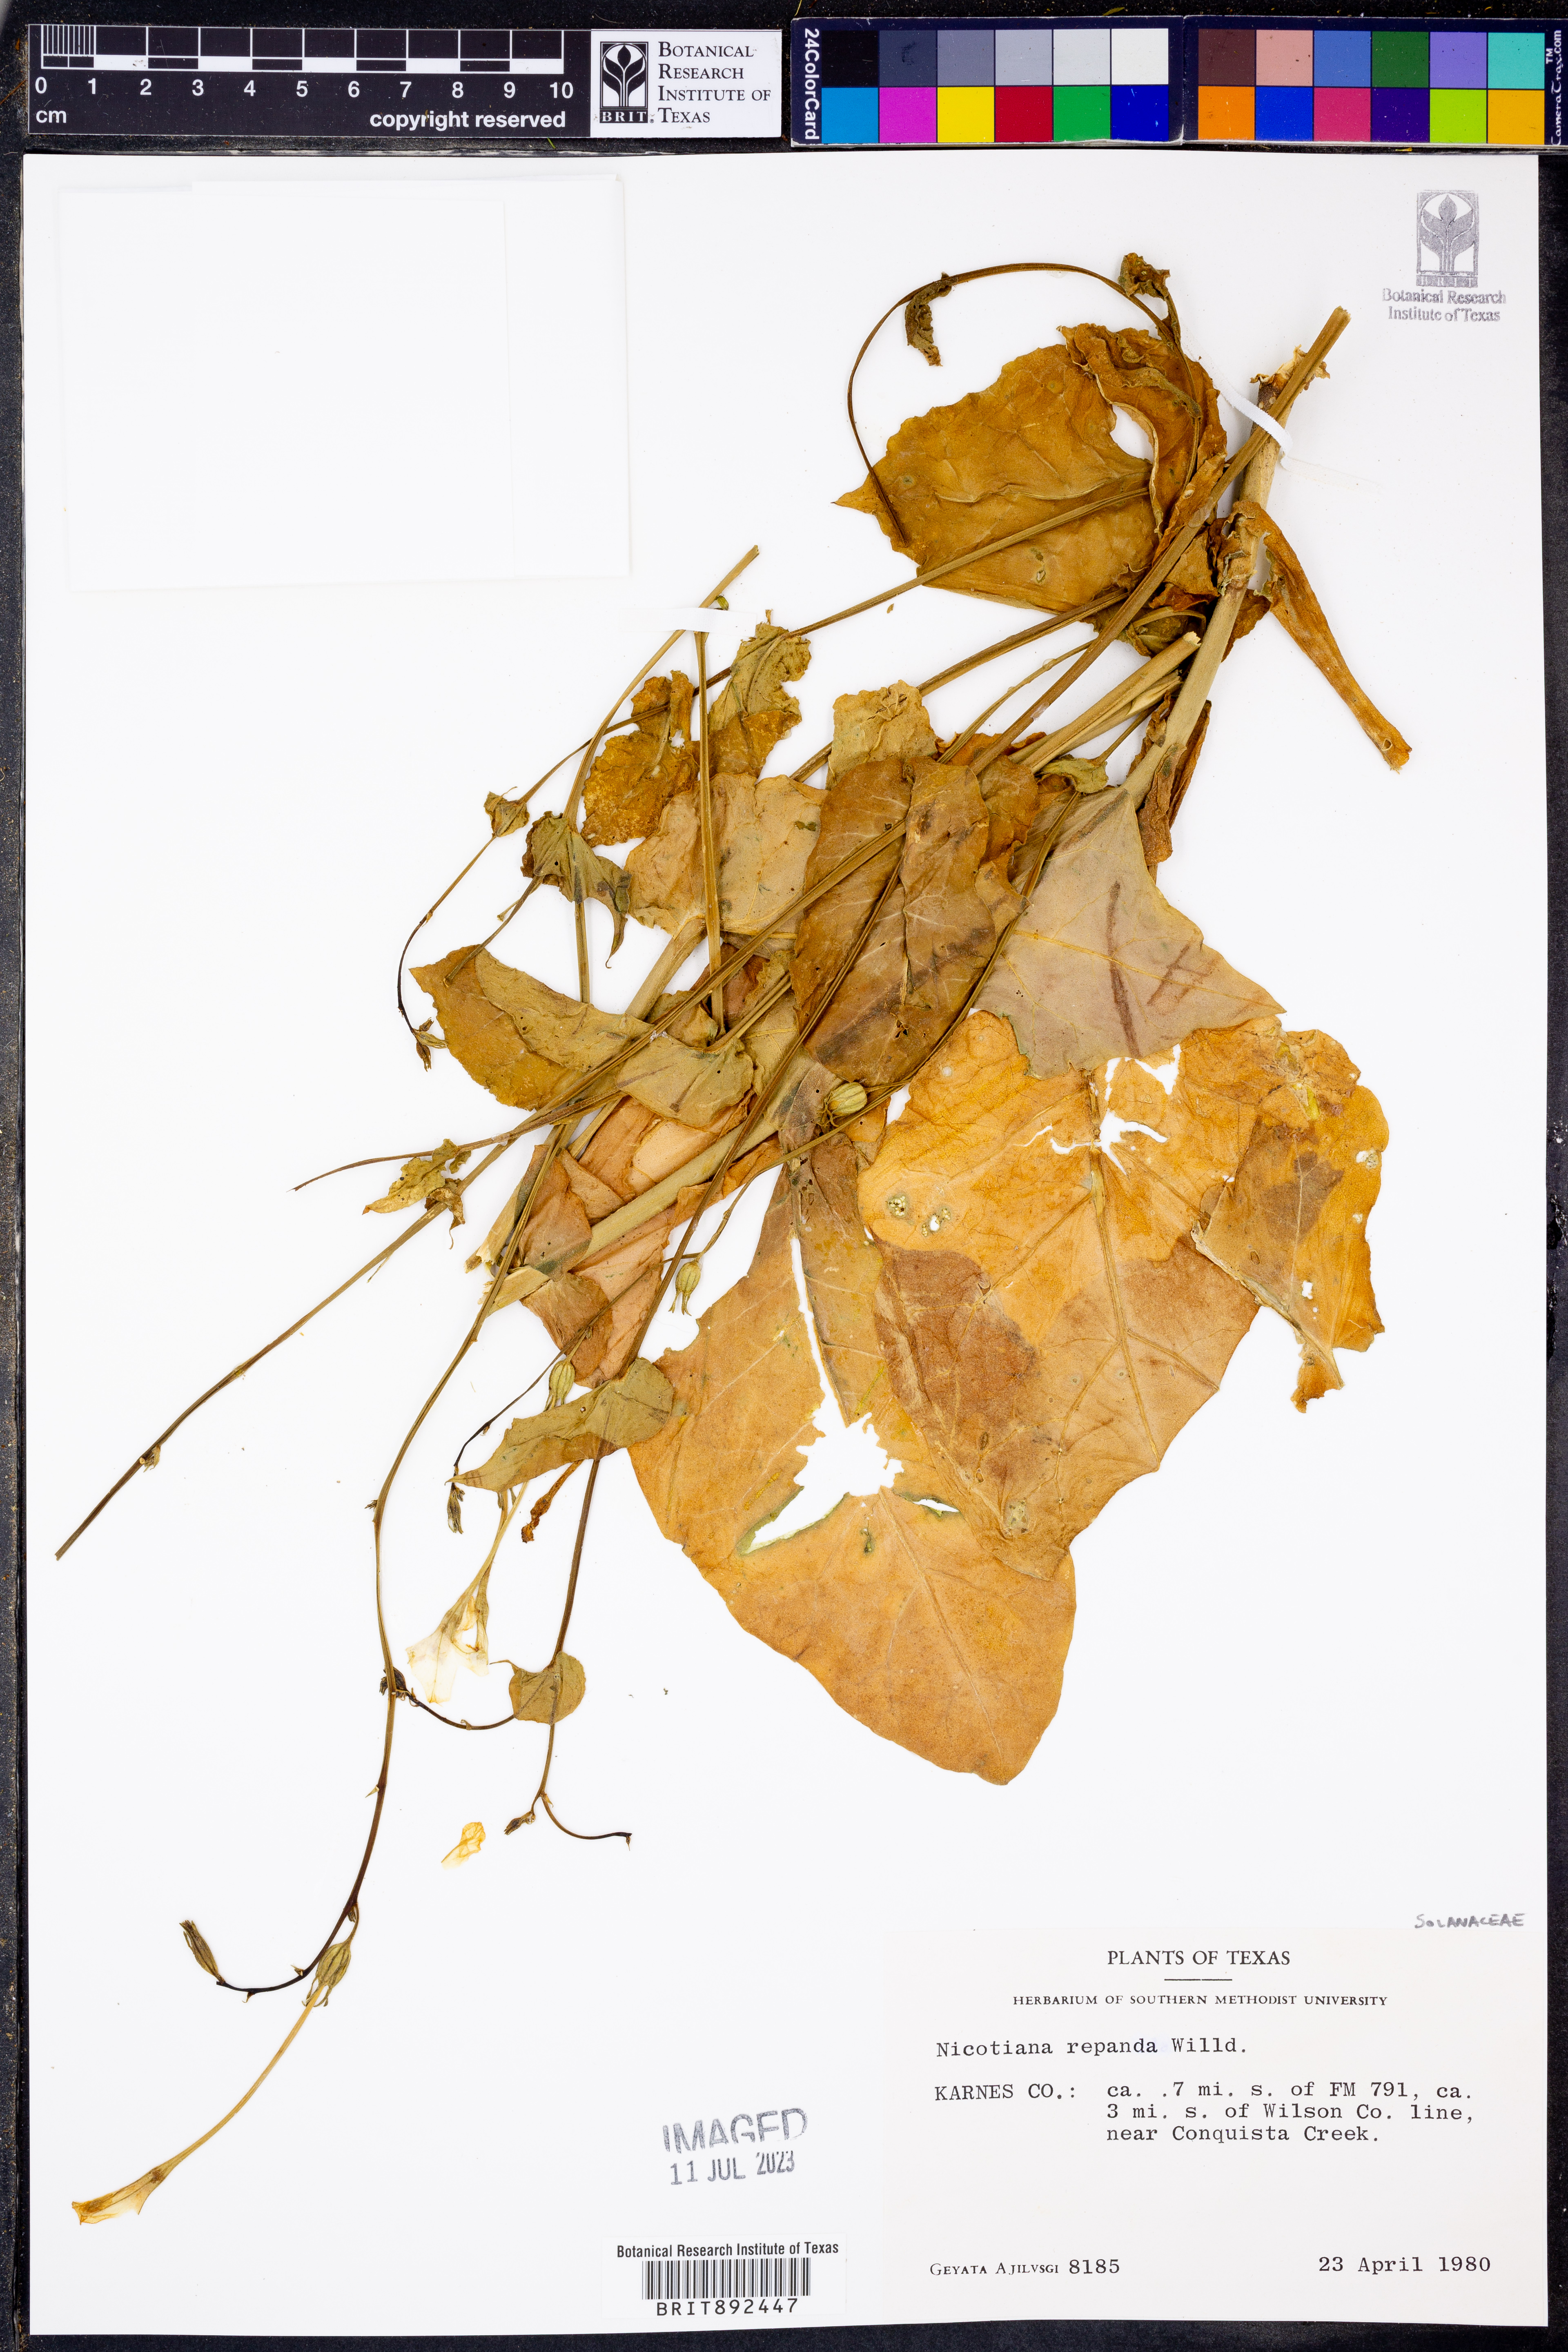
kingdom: Plantae
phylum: Tracheophyta
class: Magnoliopsida
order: Solanales
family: Solanaceae
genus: Nicotiana
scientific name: Nicotiana repanda
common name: Fiddle-leaf tobacco
